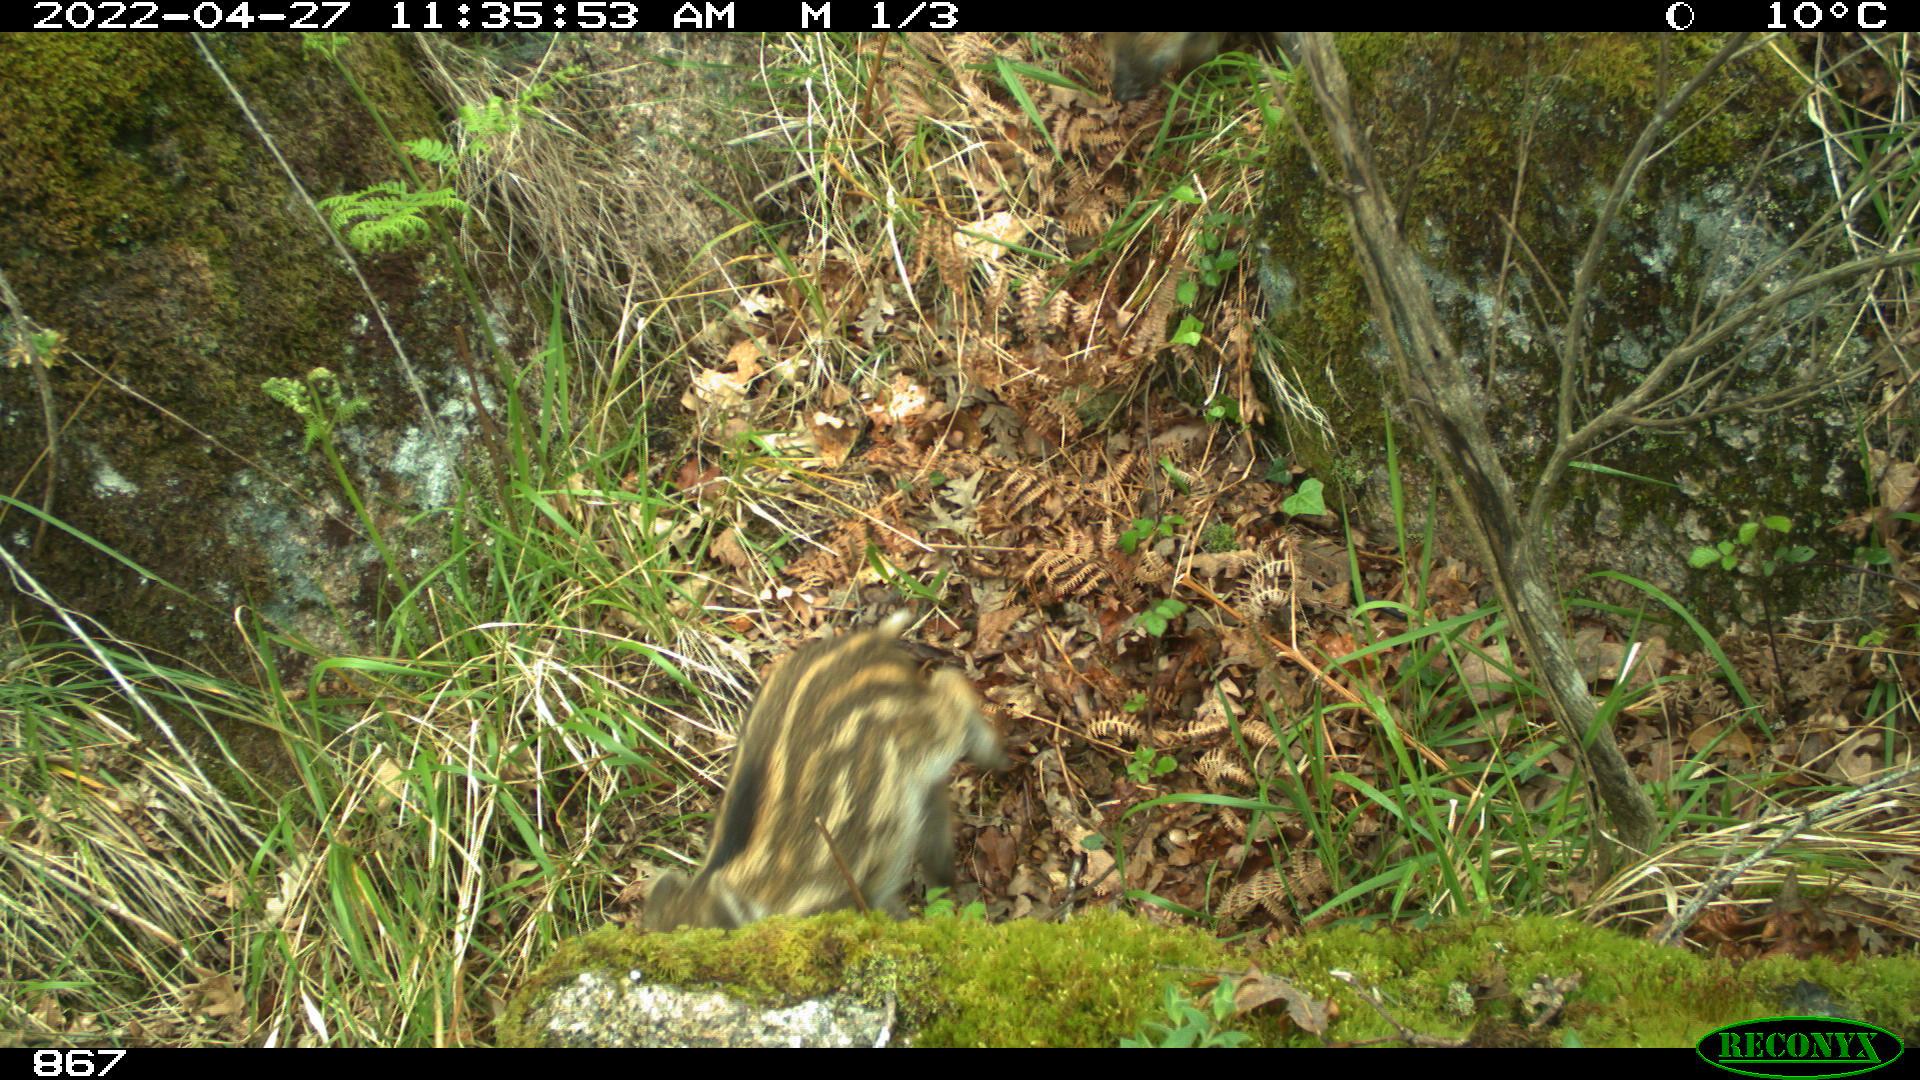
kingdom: Animalia
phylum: Chordata
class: Mammalia
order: Artiodactyla
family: Suidae
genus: Sus
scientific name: Sus scrofa
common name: Wild boar
